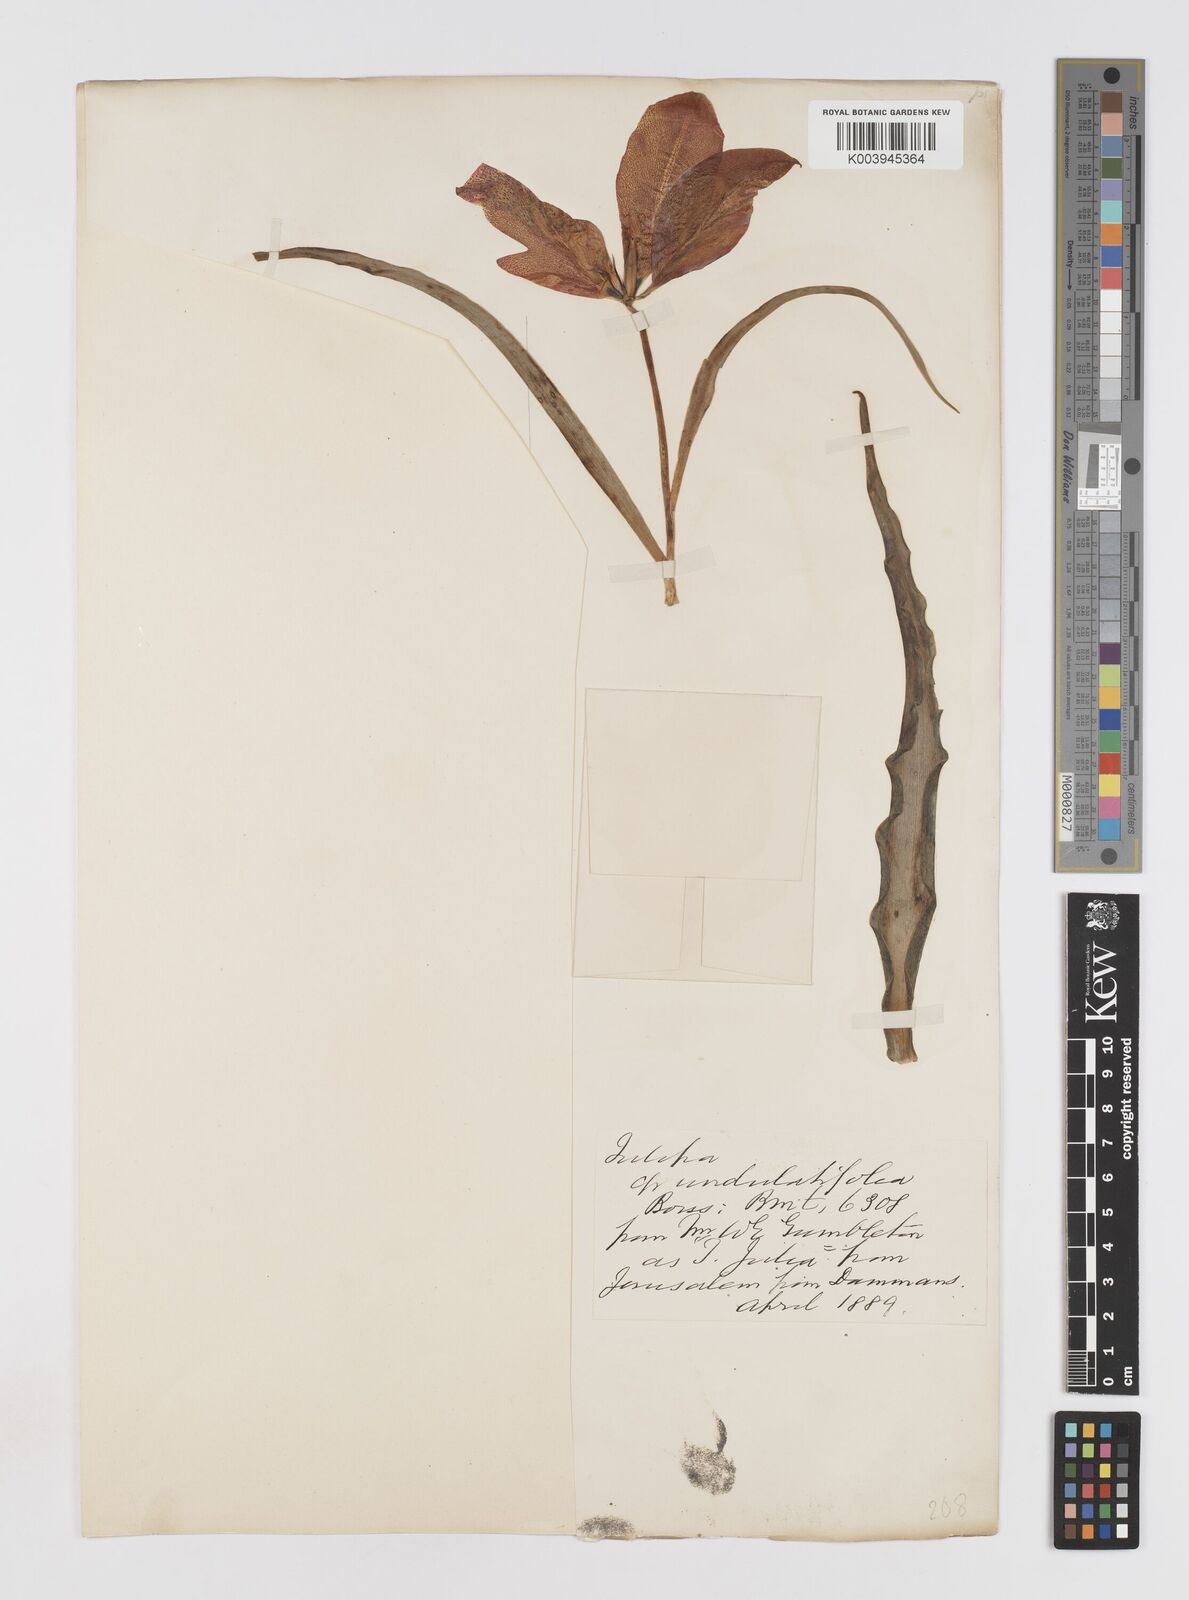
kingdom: Plantae
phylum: Tracheophyta
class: Liliopsida
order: Liliales
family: Liliaceae
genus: Tulipa
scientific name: Tulipa
